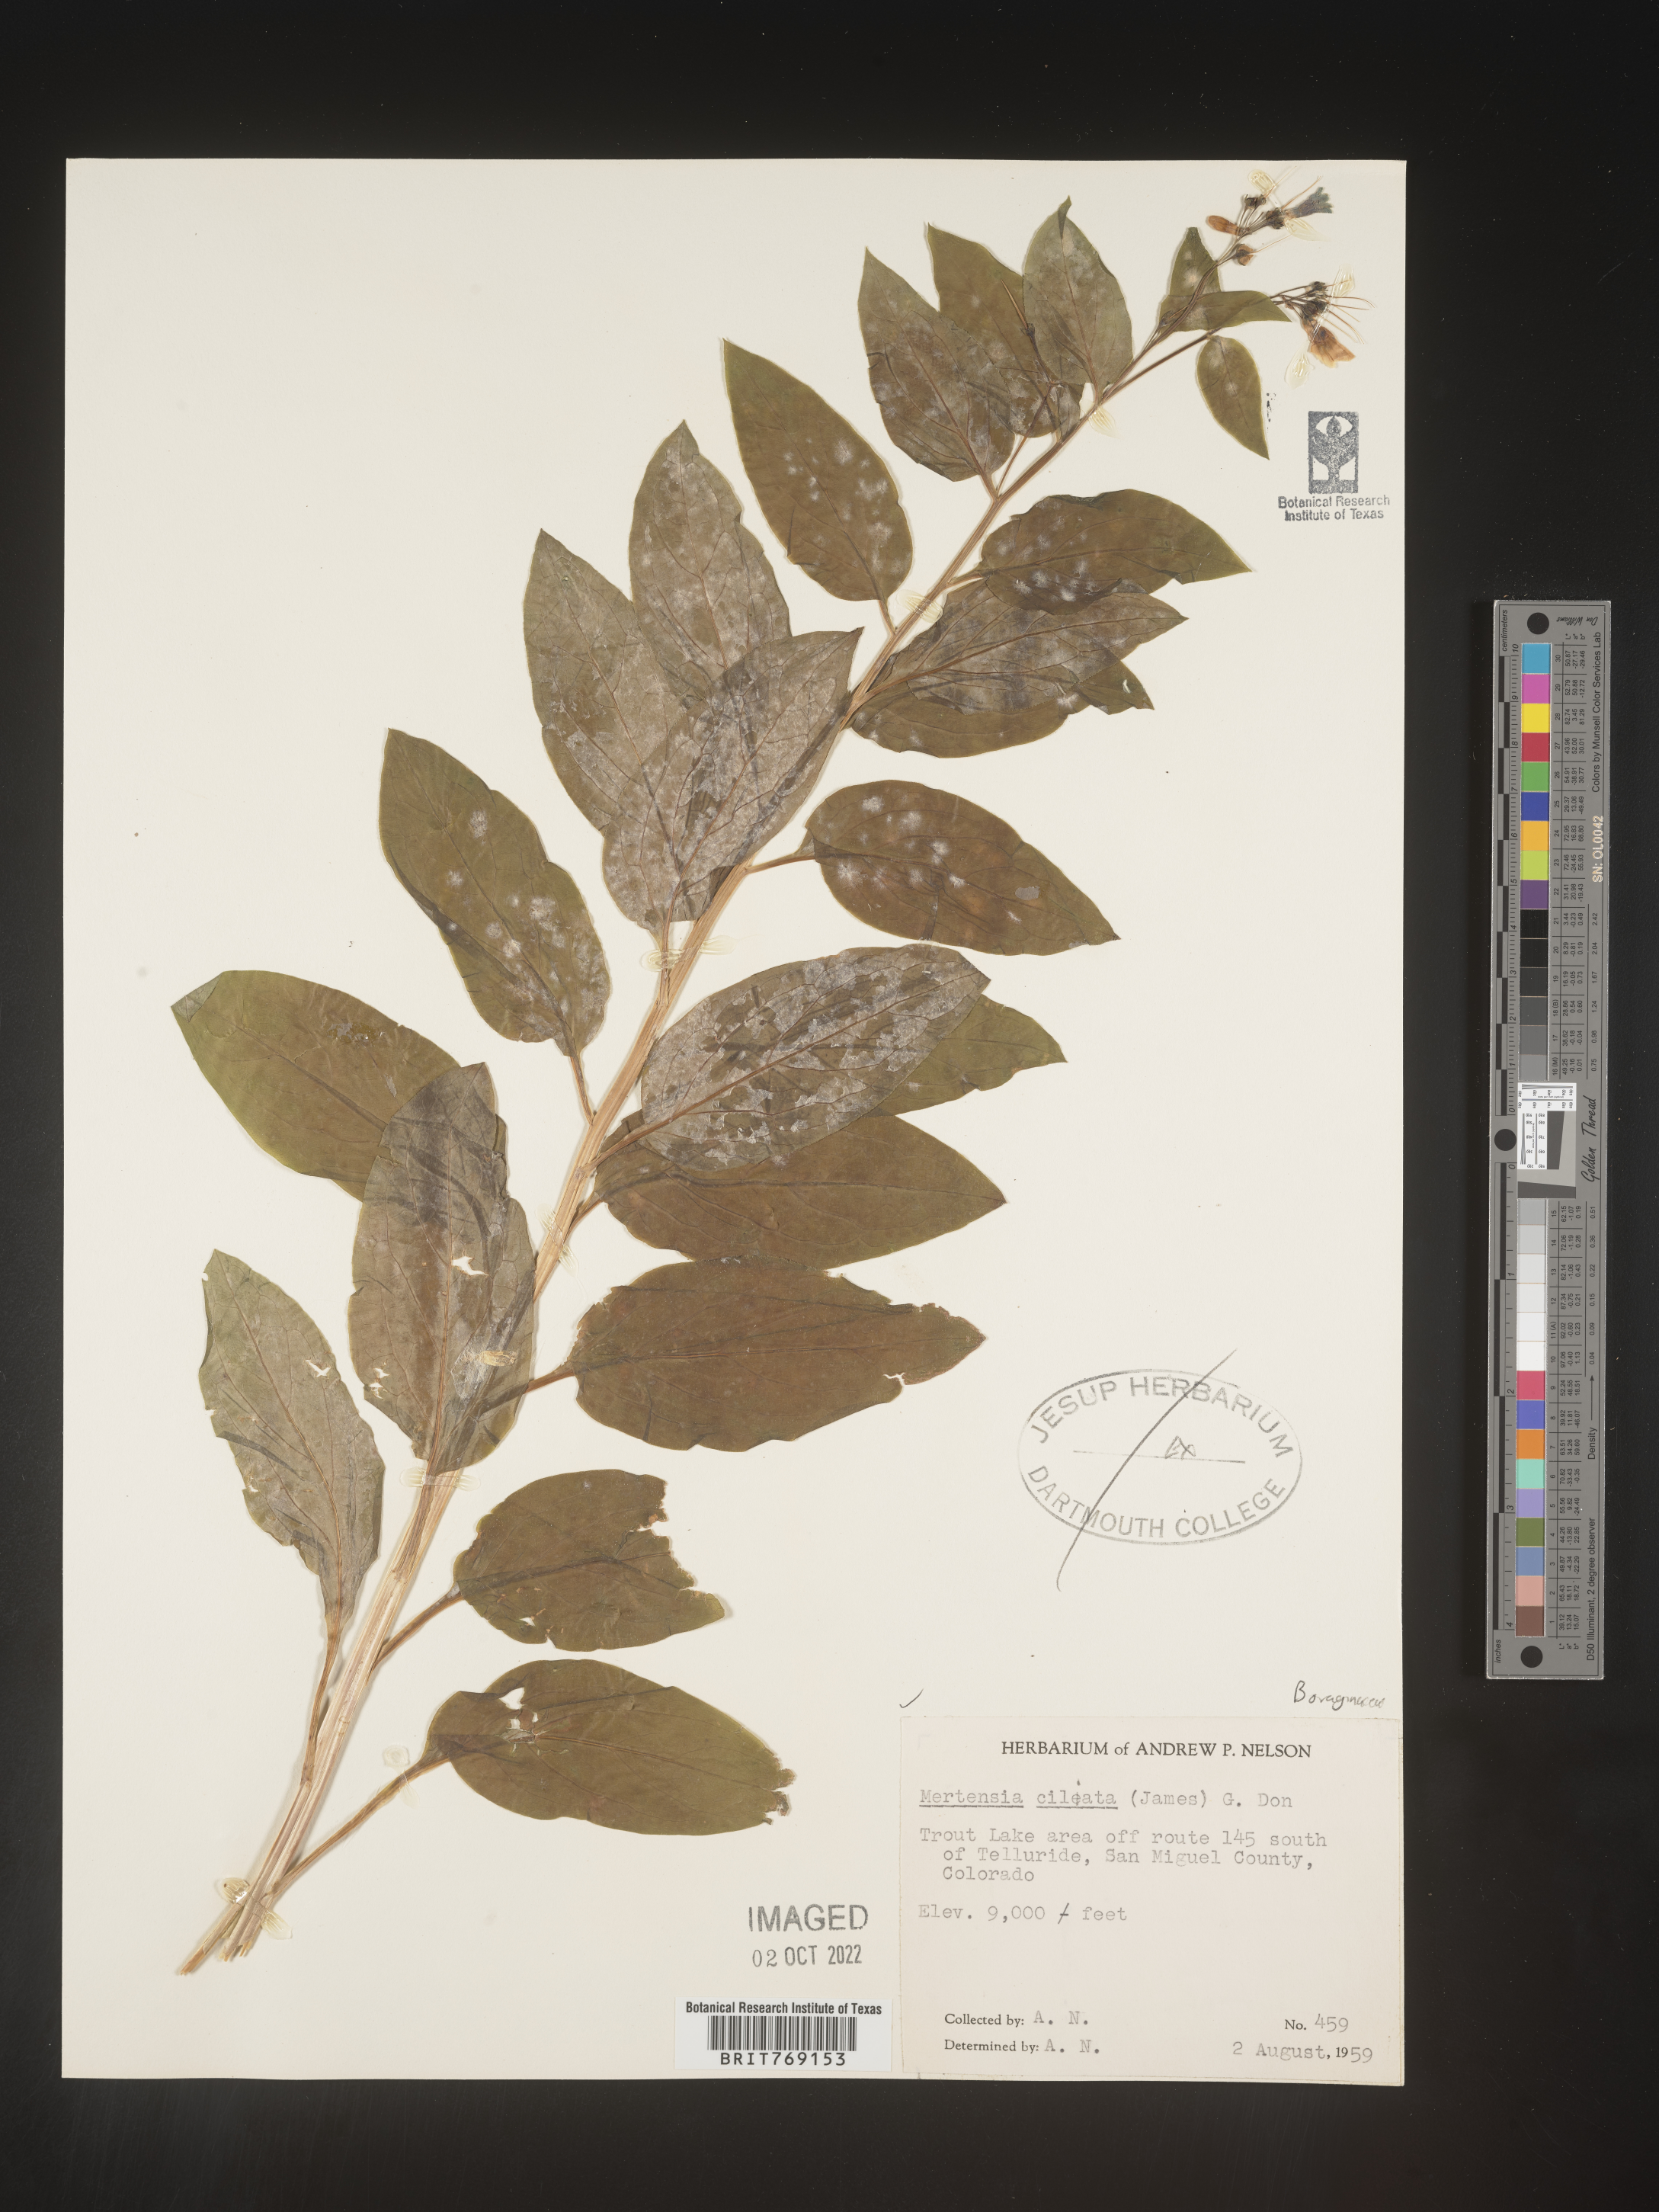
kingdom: Plantae
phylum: Tracheophyta
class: Magnoliopsida
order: Boraginales
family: Boraginaceae
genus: Mertensia
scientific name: Mertensia
